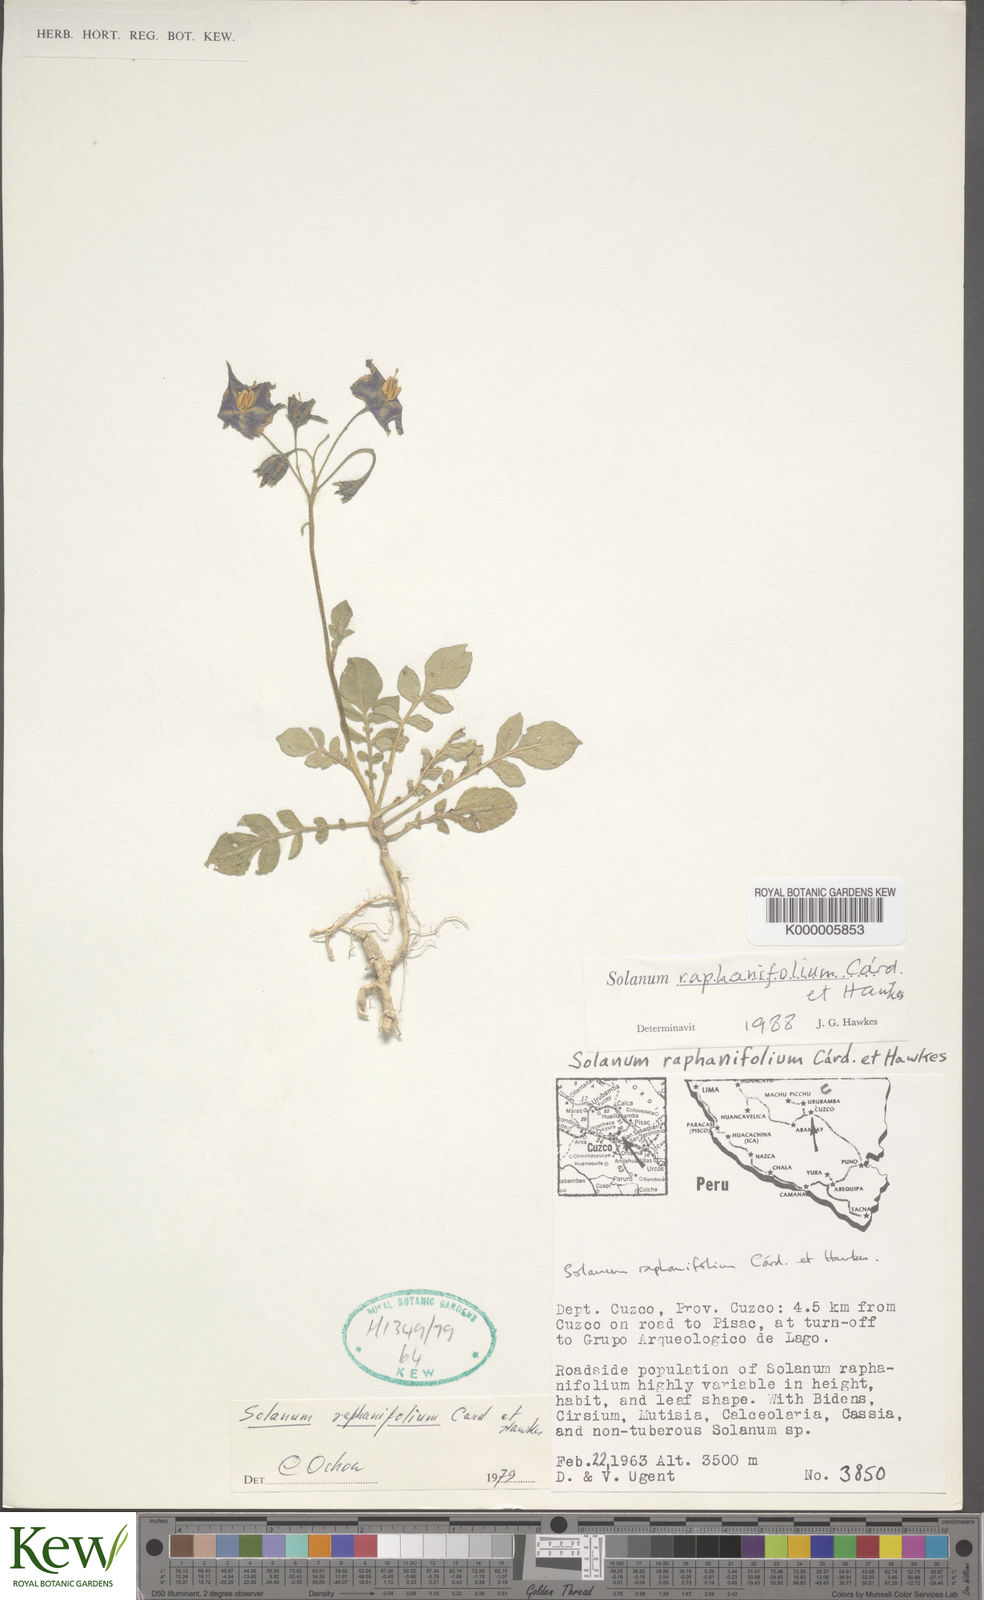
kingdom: Plantae
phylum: Tracheophyta
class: Magnoliopsida
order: Solanales
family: Solanaceae
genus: Solanum
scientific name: Solanum raphanifolium
